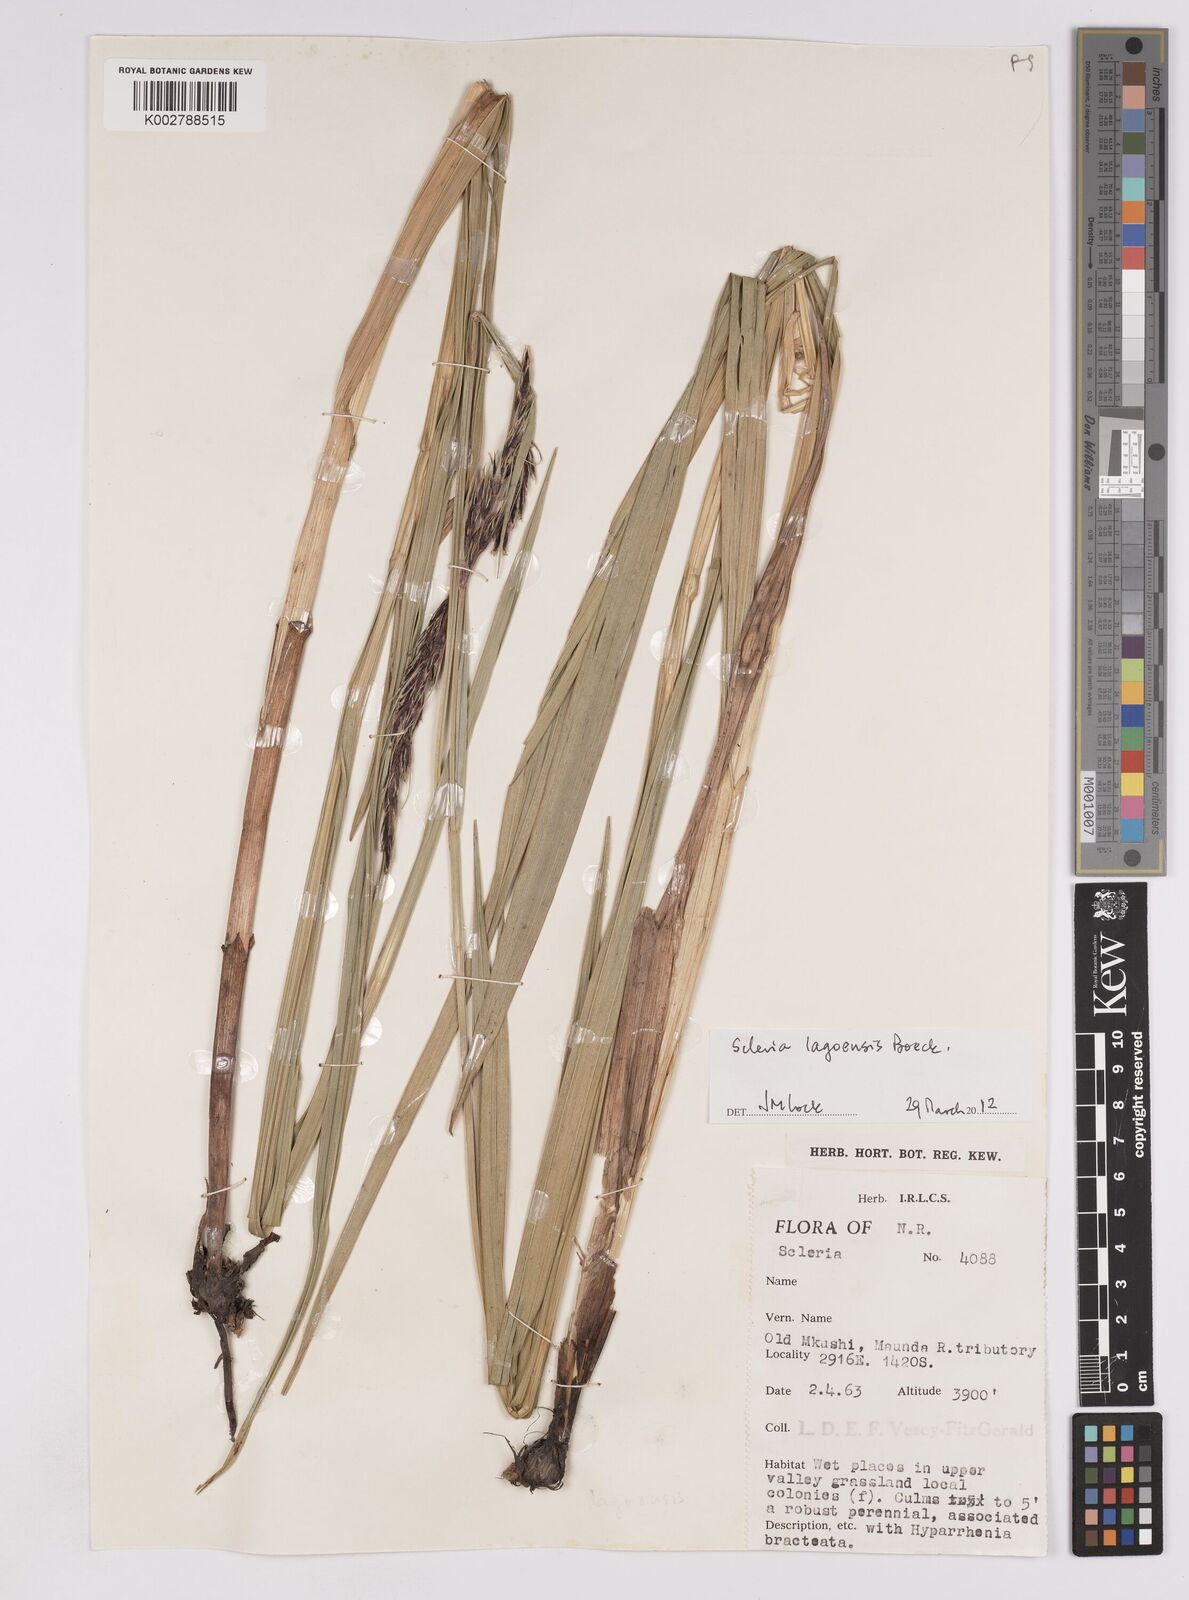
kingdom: Plantae
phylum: Tracheophyta
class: Liliopsida
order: Poales
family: Cyperaceae
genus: Scleria
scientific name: Scleria melanomphala
